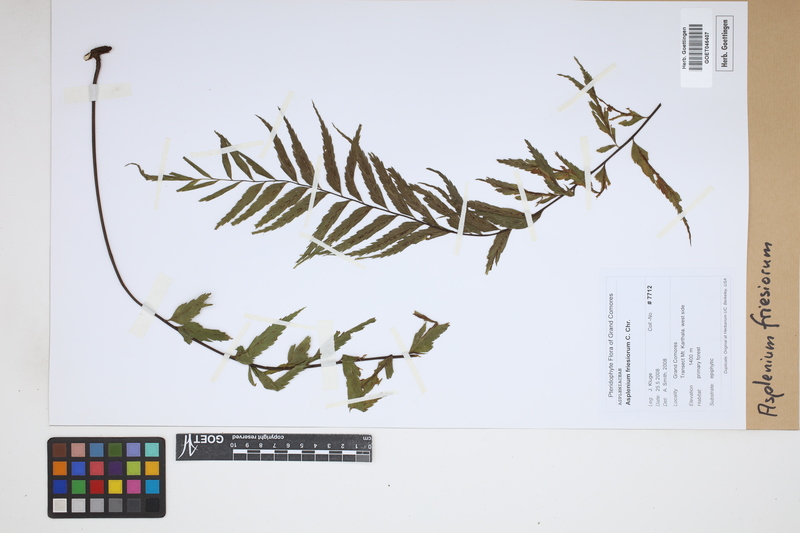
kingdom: Plantae
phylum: Tracheophyta
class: Polypodiopsida
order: Polypodiales
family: Aspleniaceae
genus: Asplenium
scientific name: Asplenium gueinzianum
